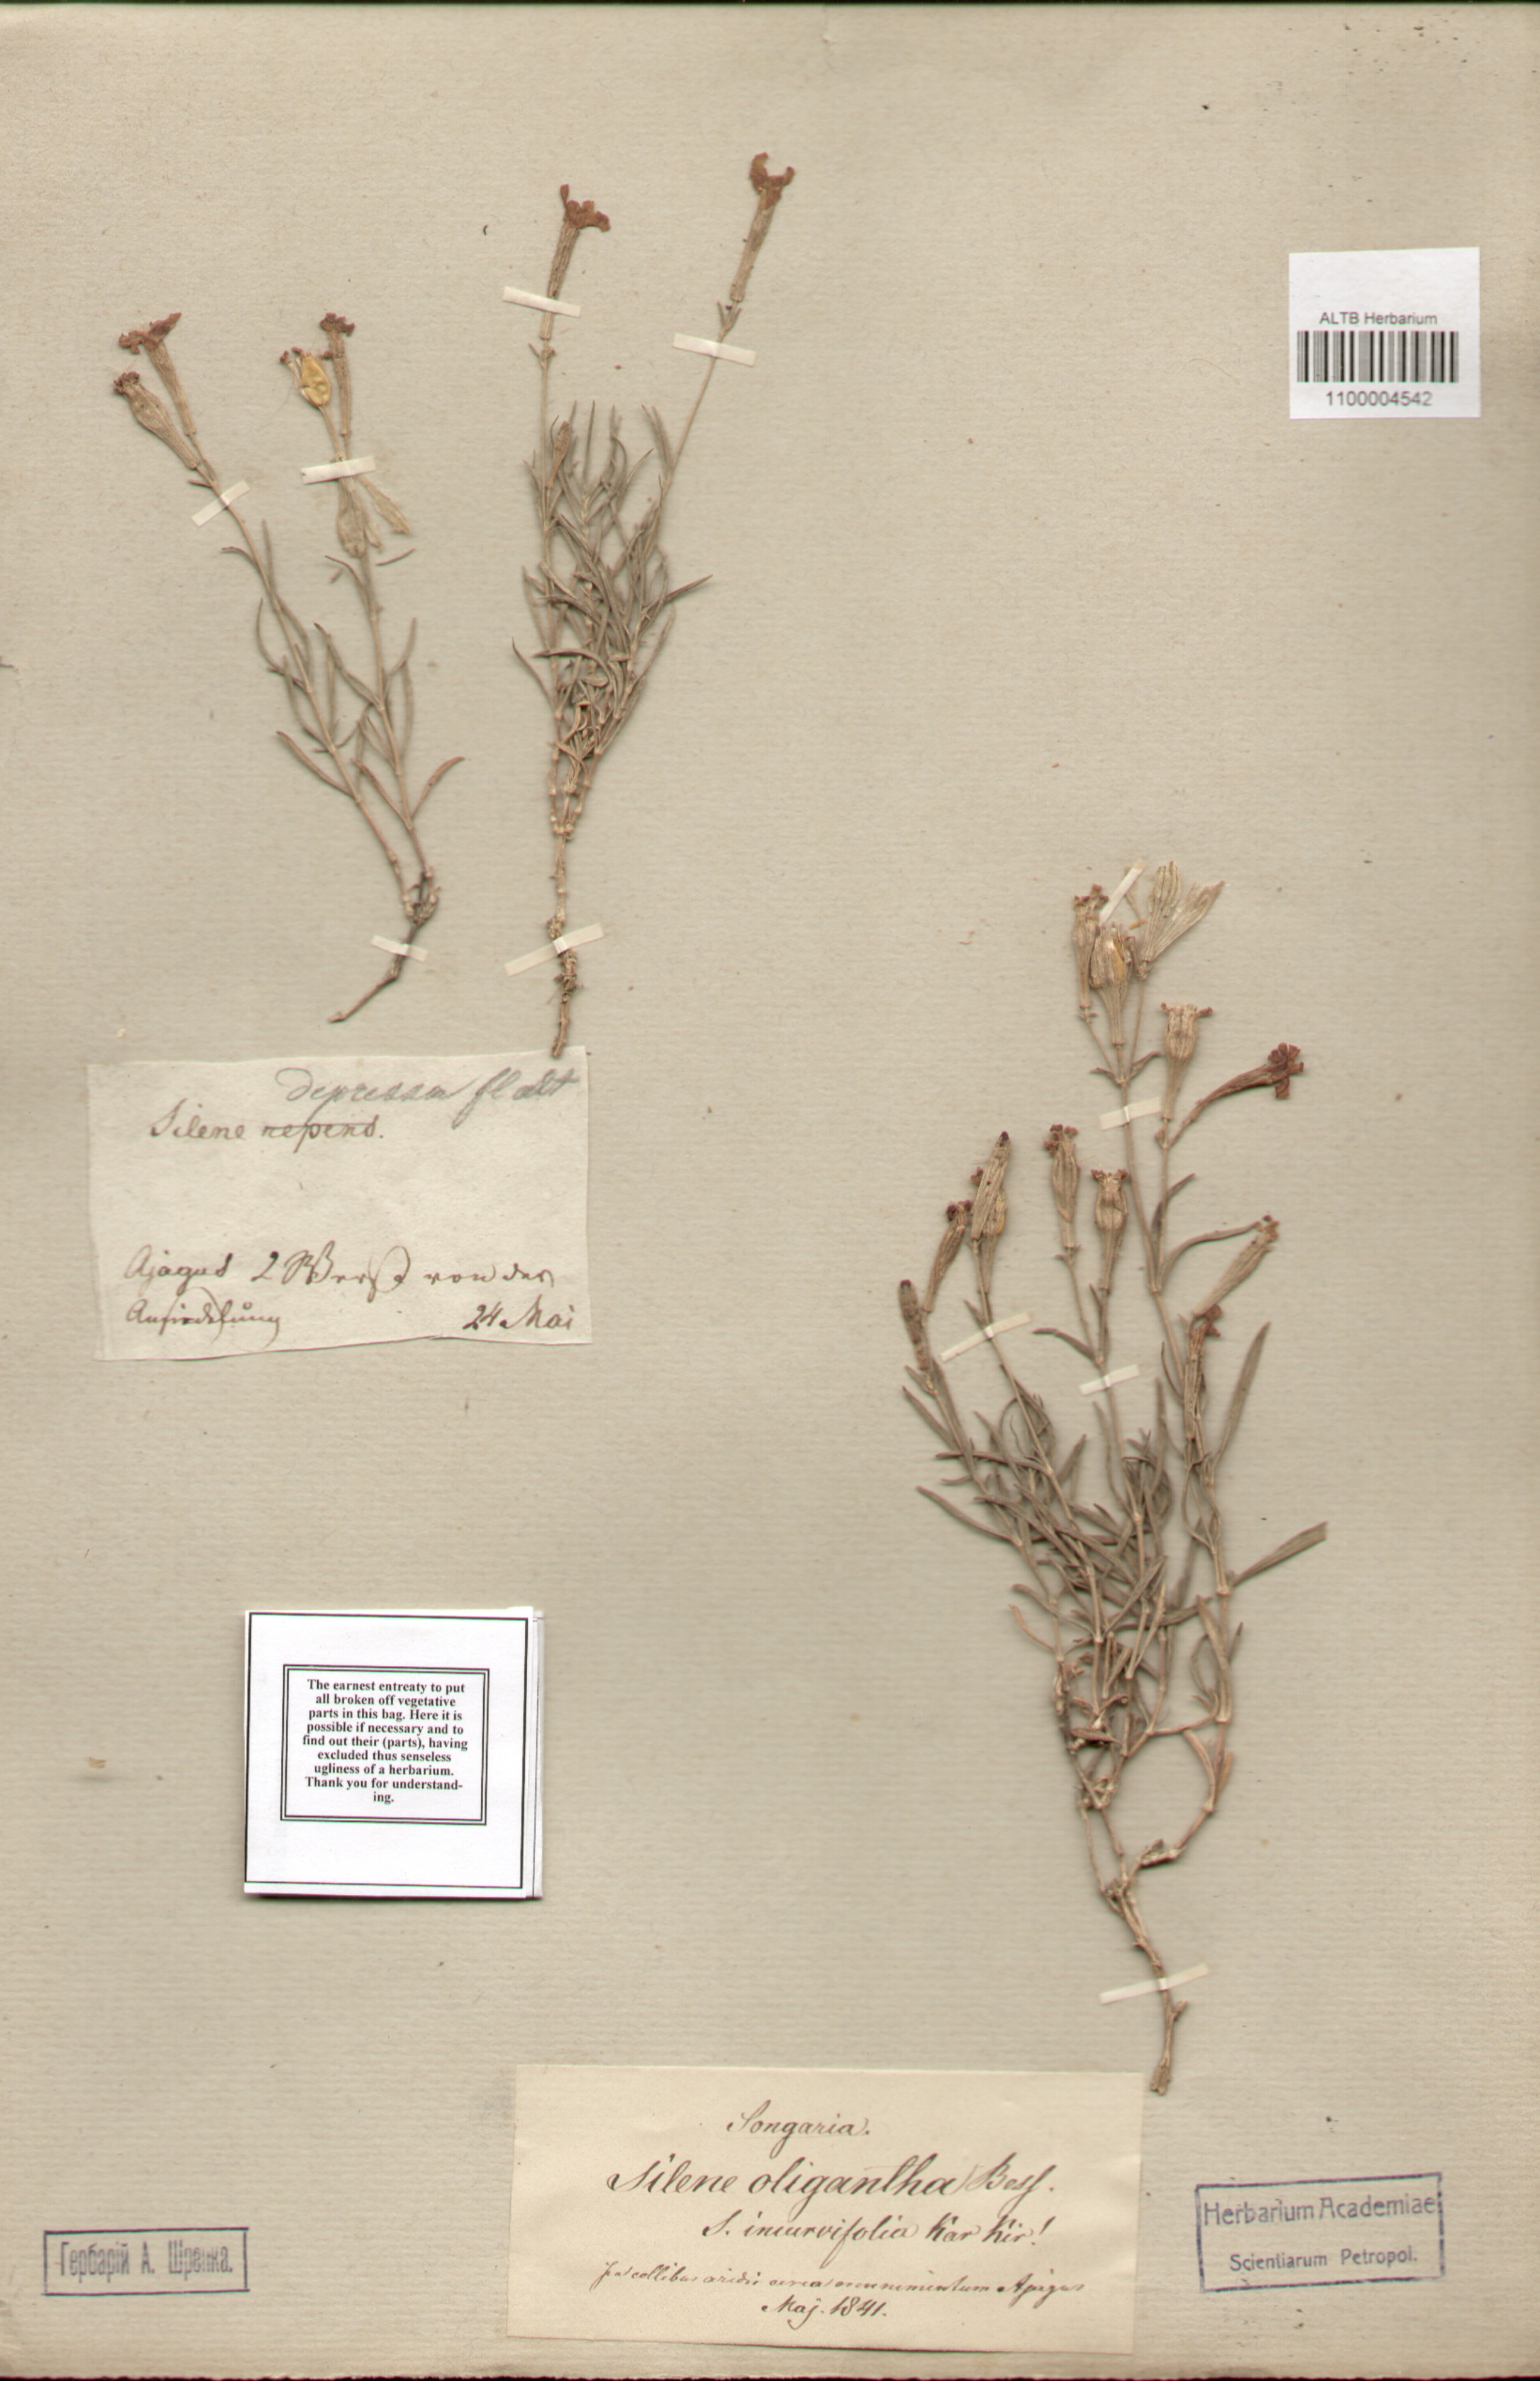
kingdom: Plantae
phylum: Tracheophyta
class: Magnoliopsida
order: Caryophyllales
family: Caryophyllaceae
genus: Silene
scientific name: Silene incurvifolia
